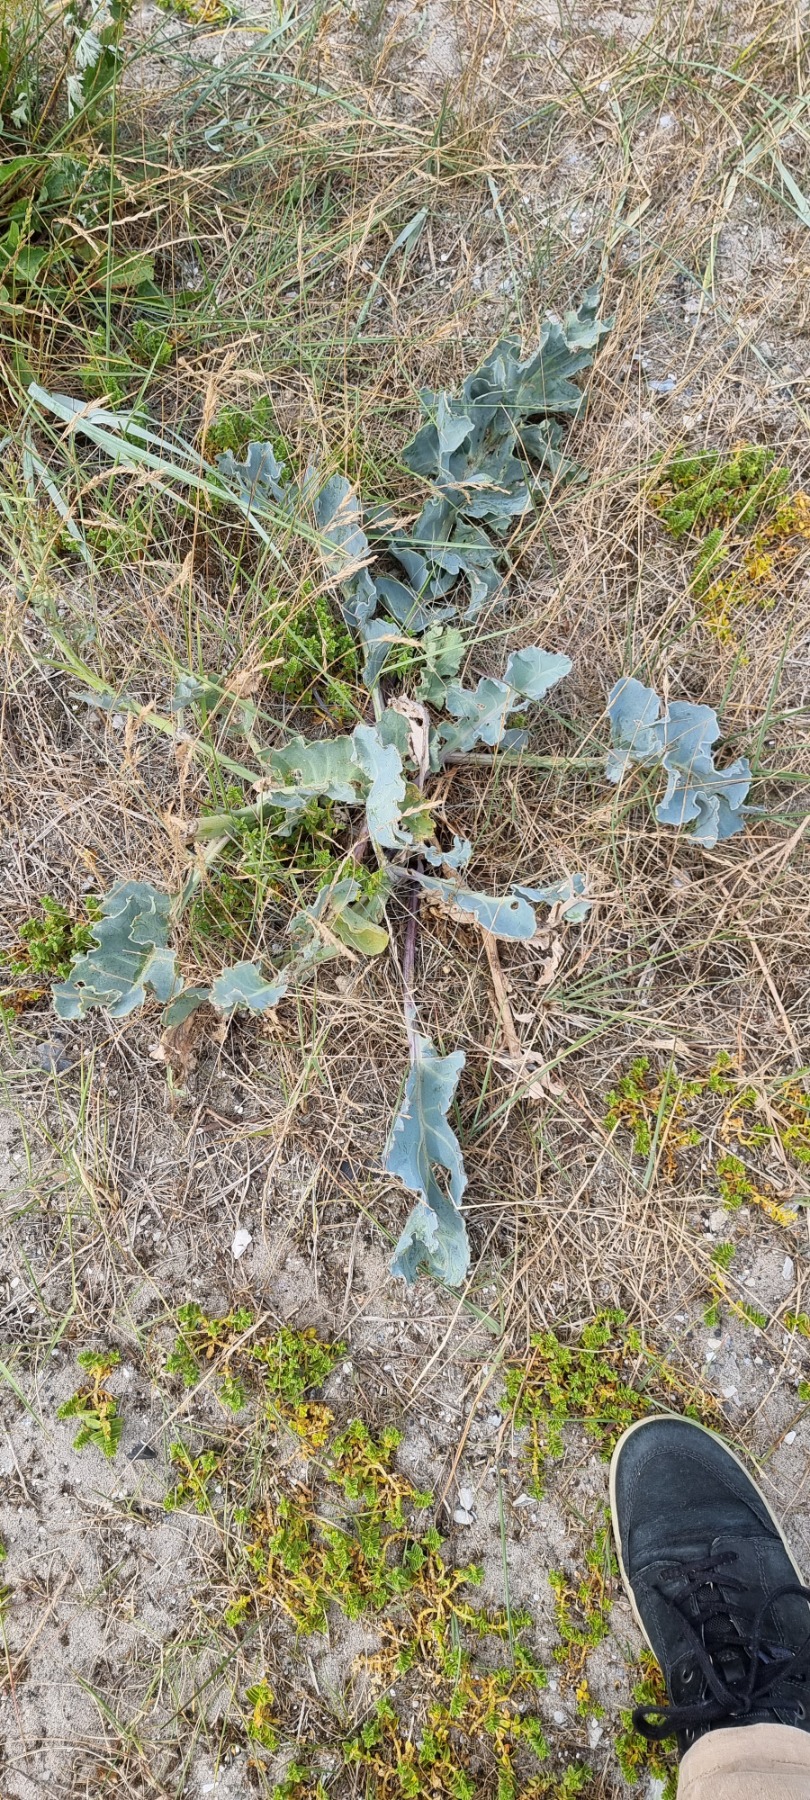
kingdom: Plantae
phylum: Tracheophyta
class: Magnoliopsida
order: Brassicales
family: Brassicaceae
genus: Crambe
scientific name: Crambe maritima
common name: Strandkål
